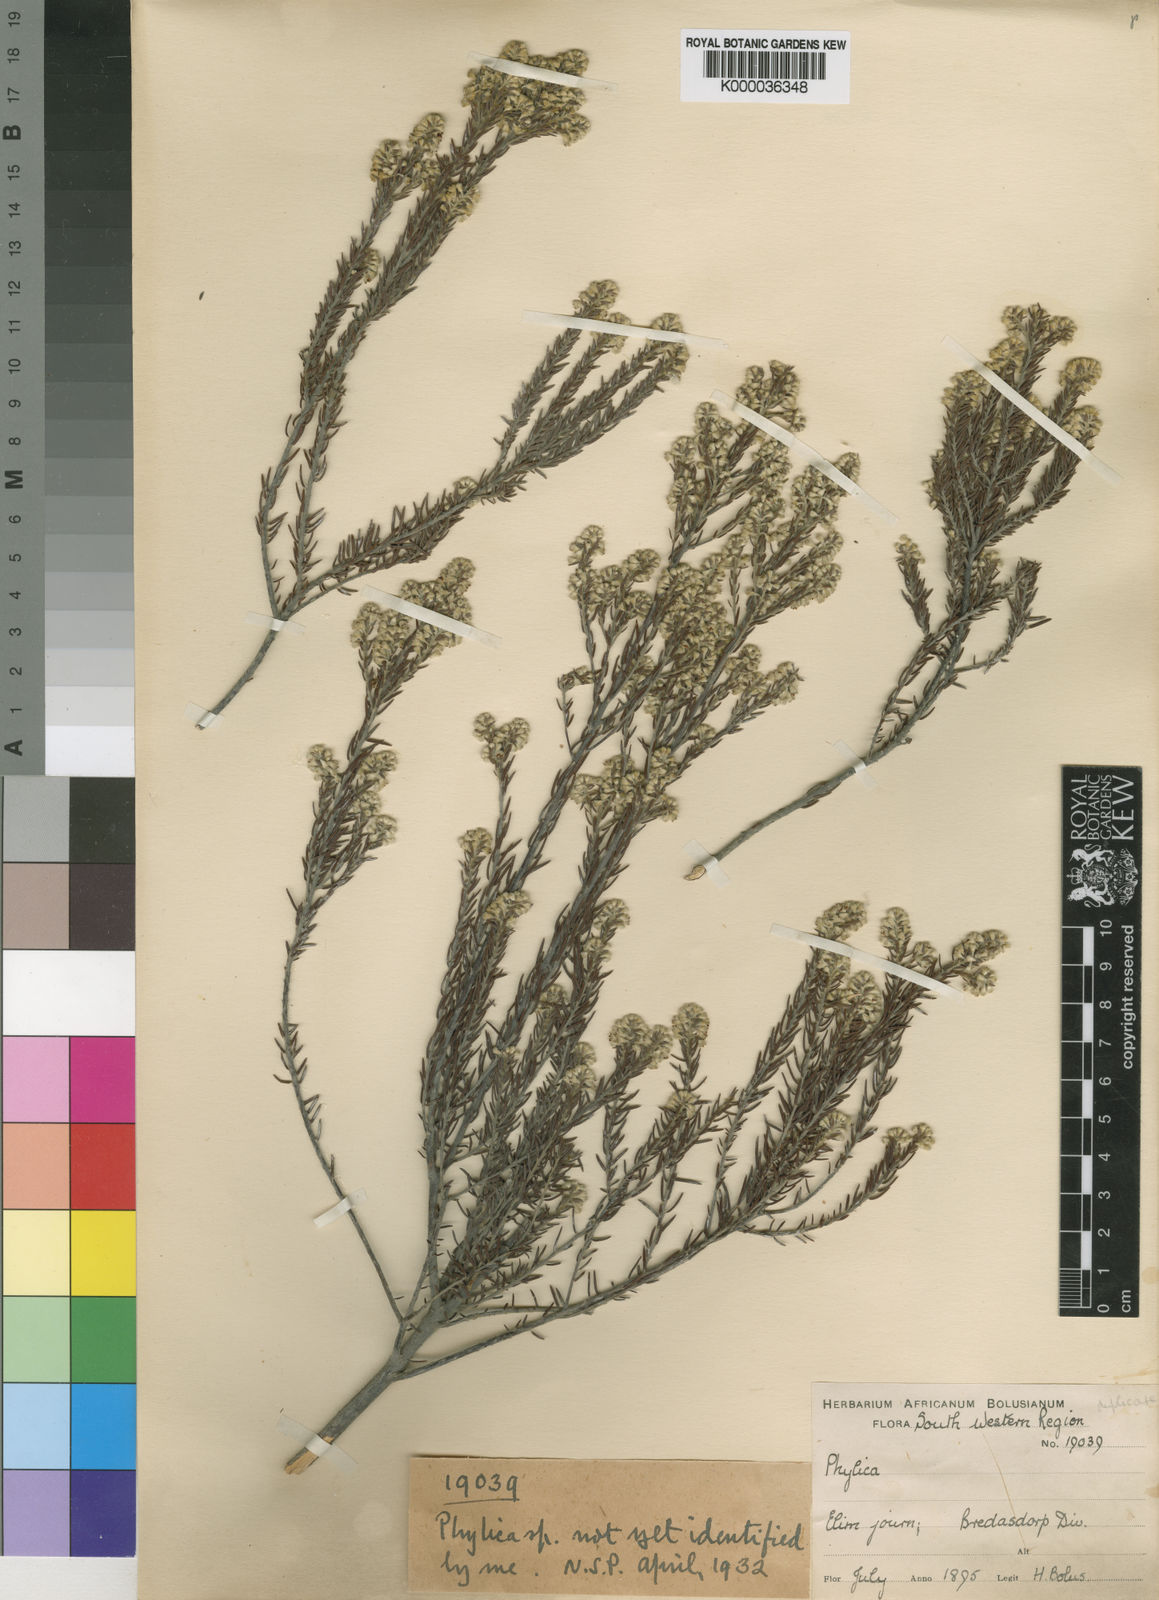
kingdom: Plantae
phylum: Tracheophyta
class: Magnoliopsida
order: Rosales
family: Rhamnaceae
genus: Phylica
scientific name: Phylica elimensis
